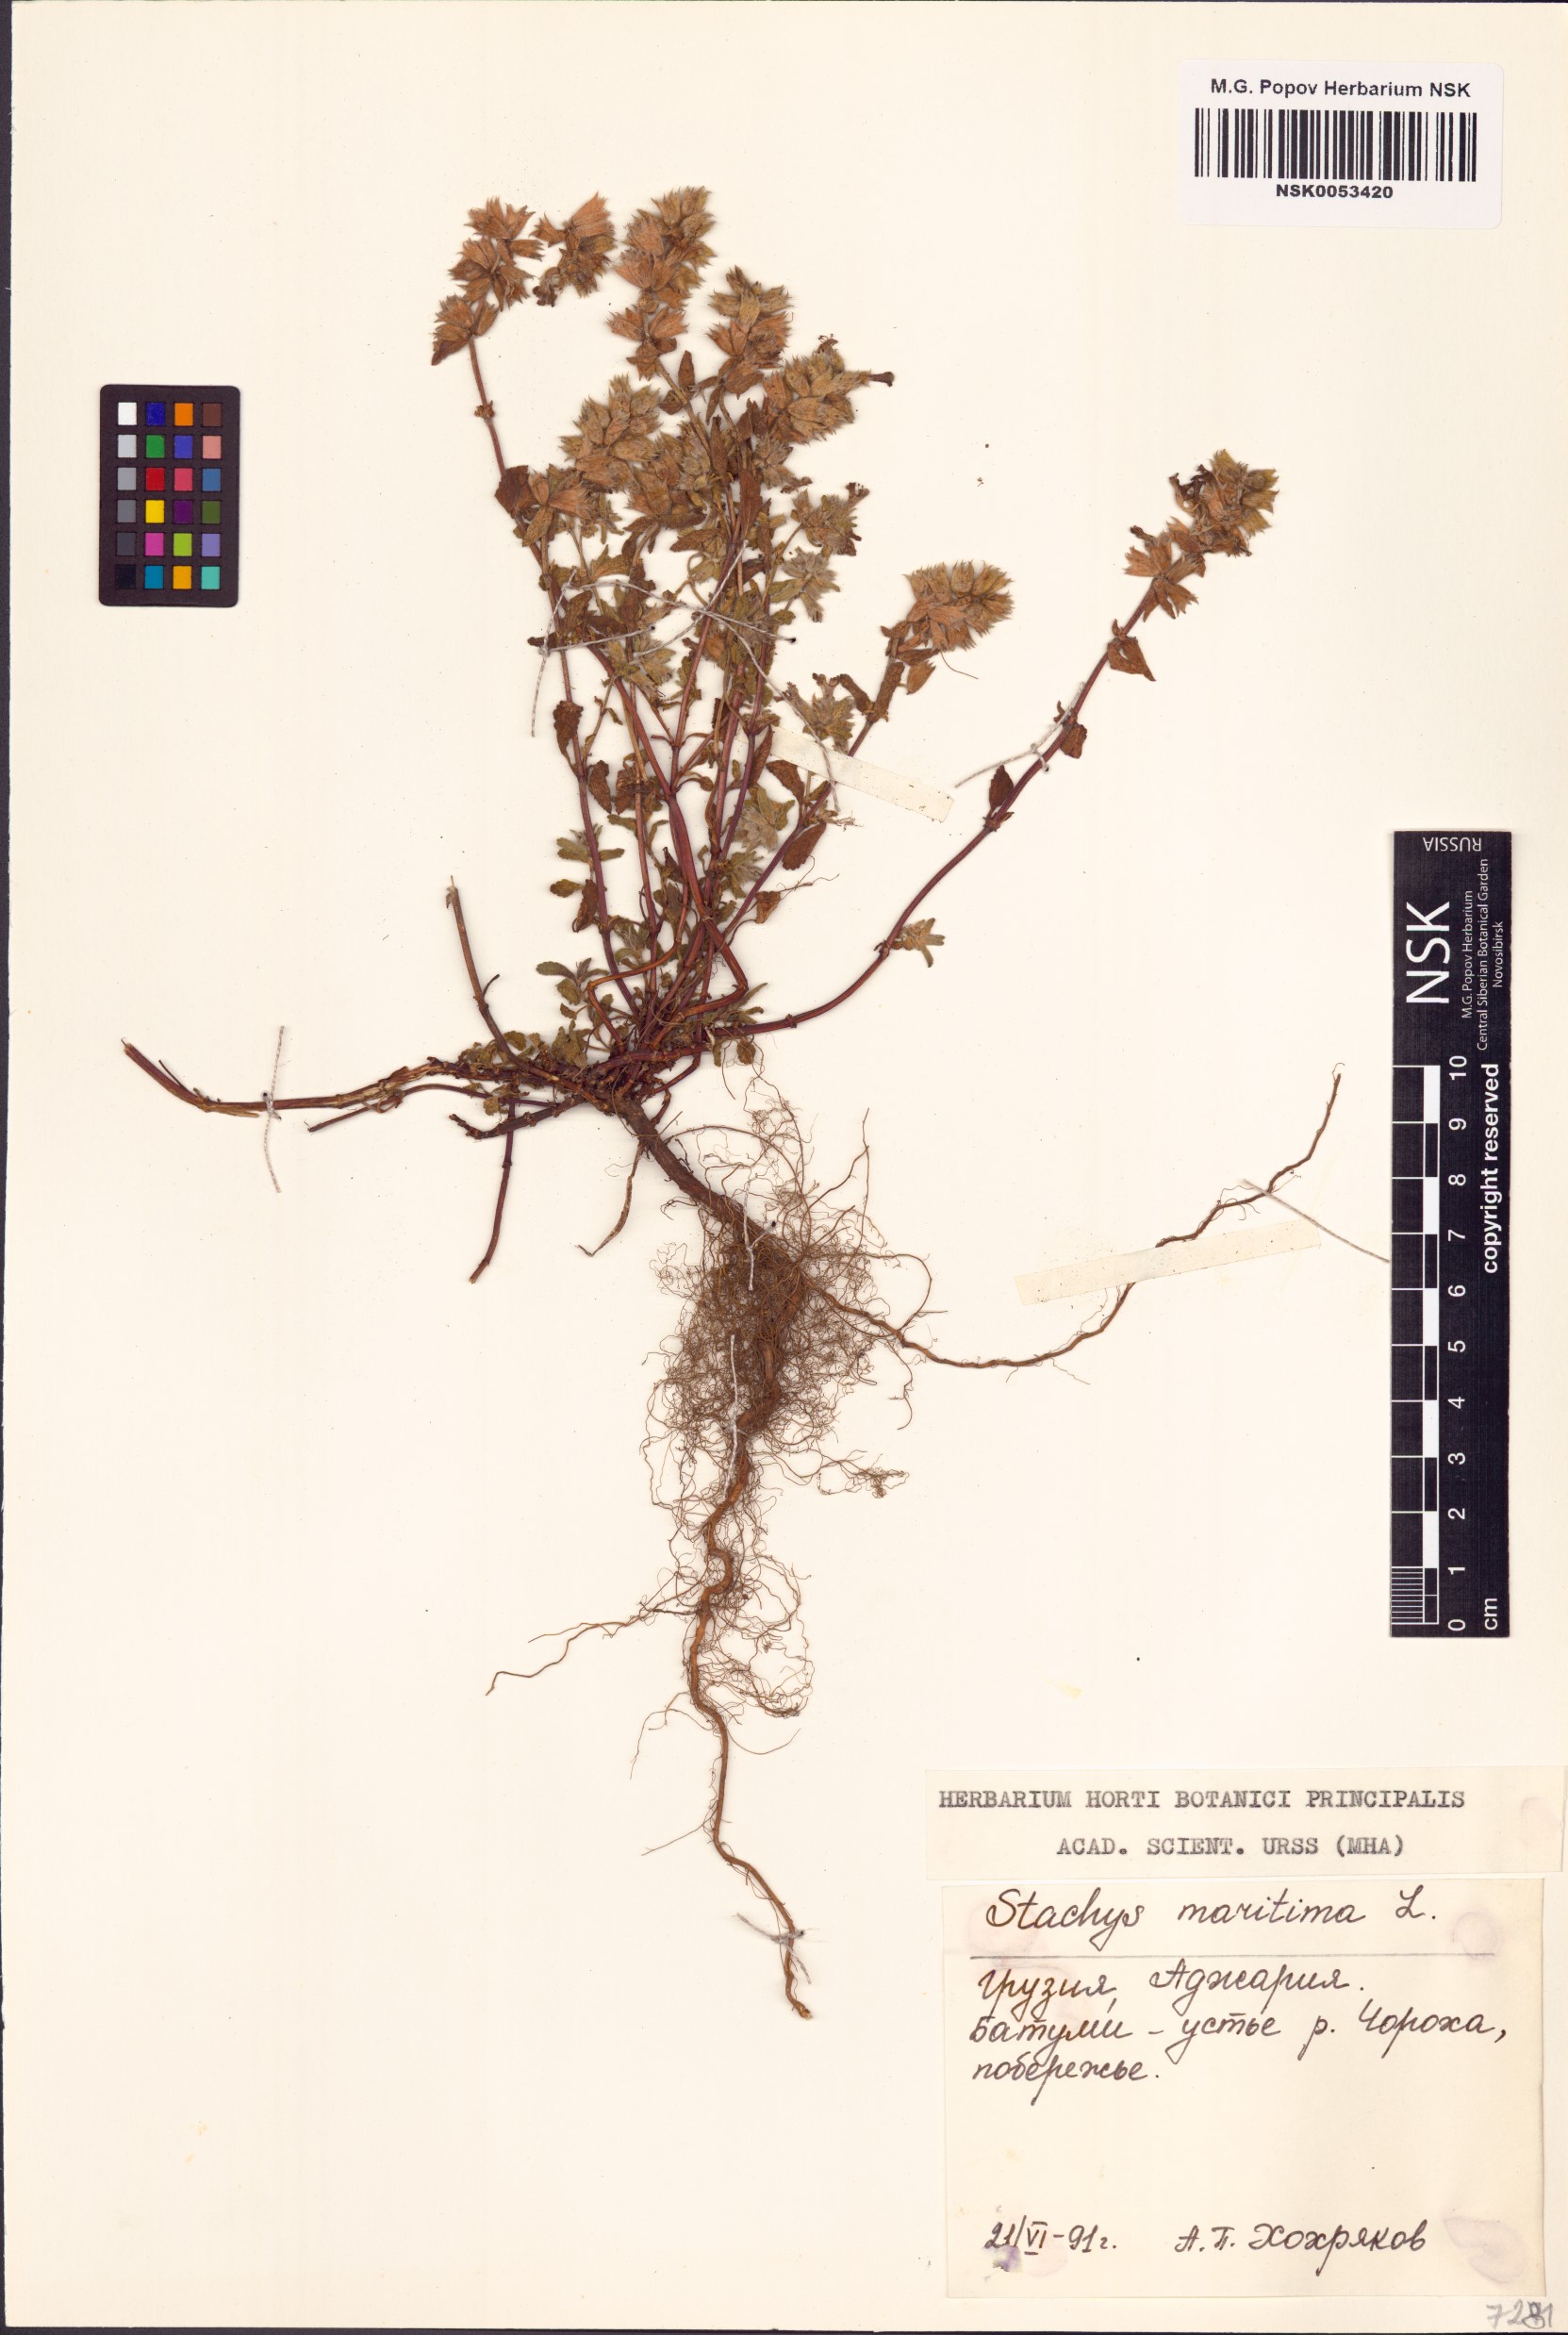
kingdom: Plantae
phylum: Tracheophyta
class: Magnoliopsida
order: Lamiales
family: Lamiaceae
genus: Stachys
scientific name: Stachys maritima
